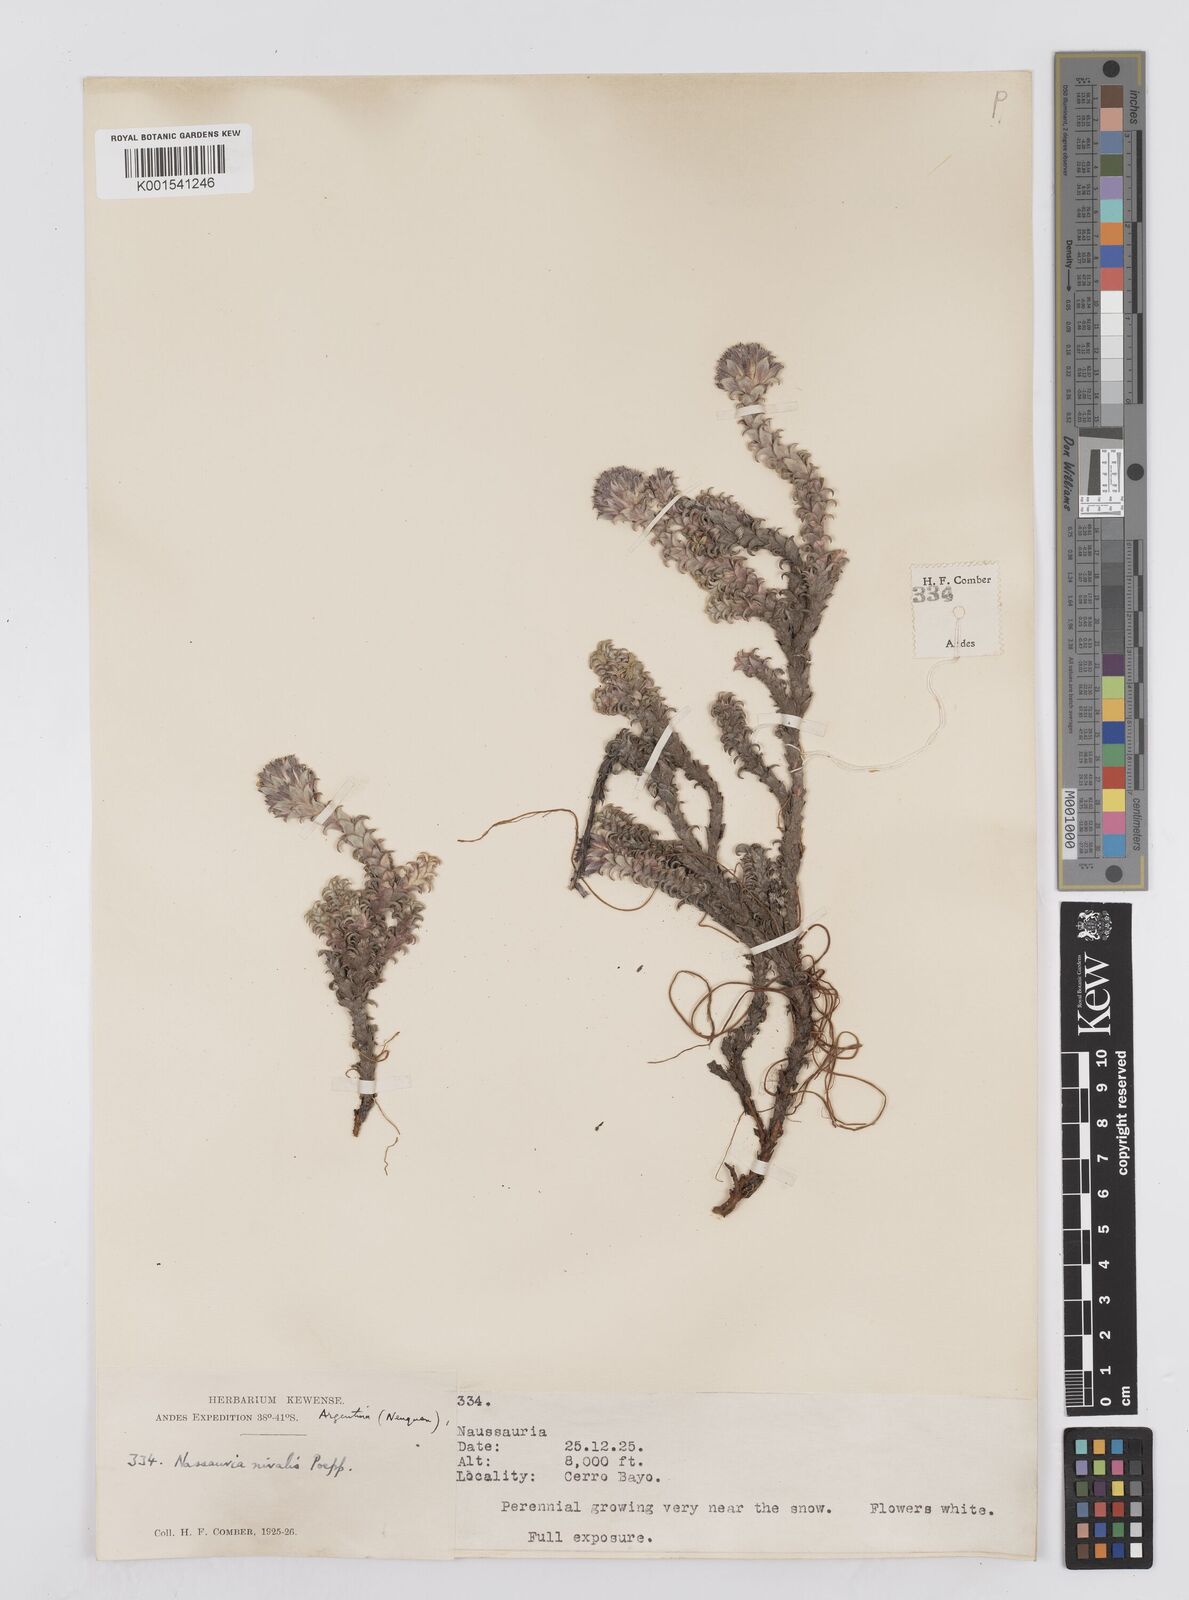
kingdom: Plantae
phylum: Tracheophyta
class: Magnoliopsida
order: Asterales
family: Asteraceae
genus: Nassauvia
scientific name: Nassauvia revoluta
